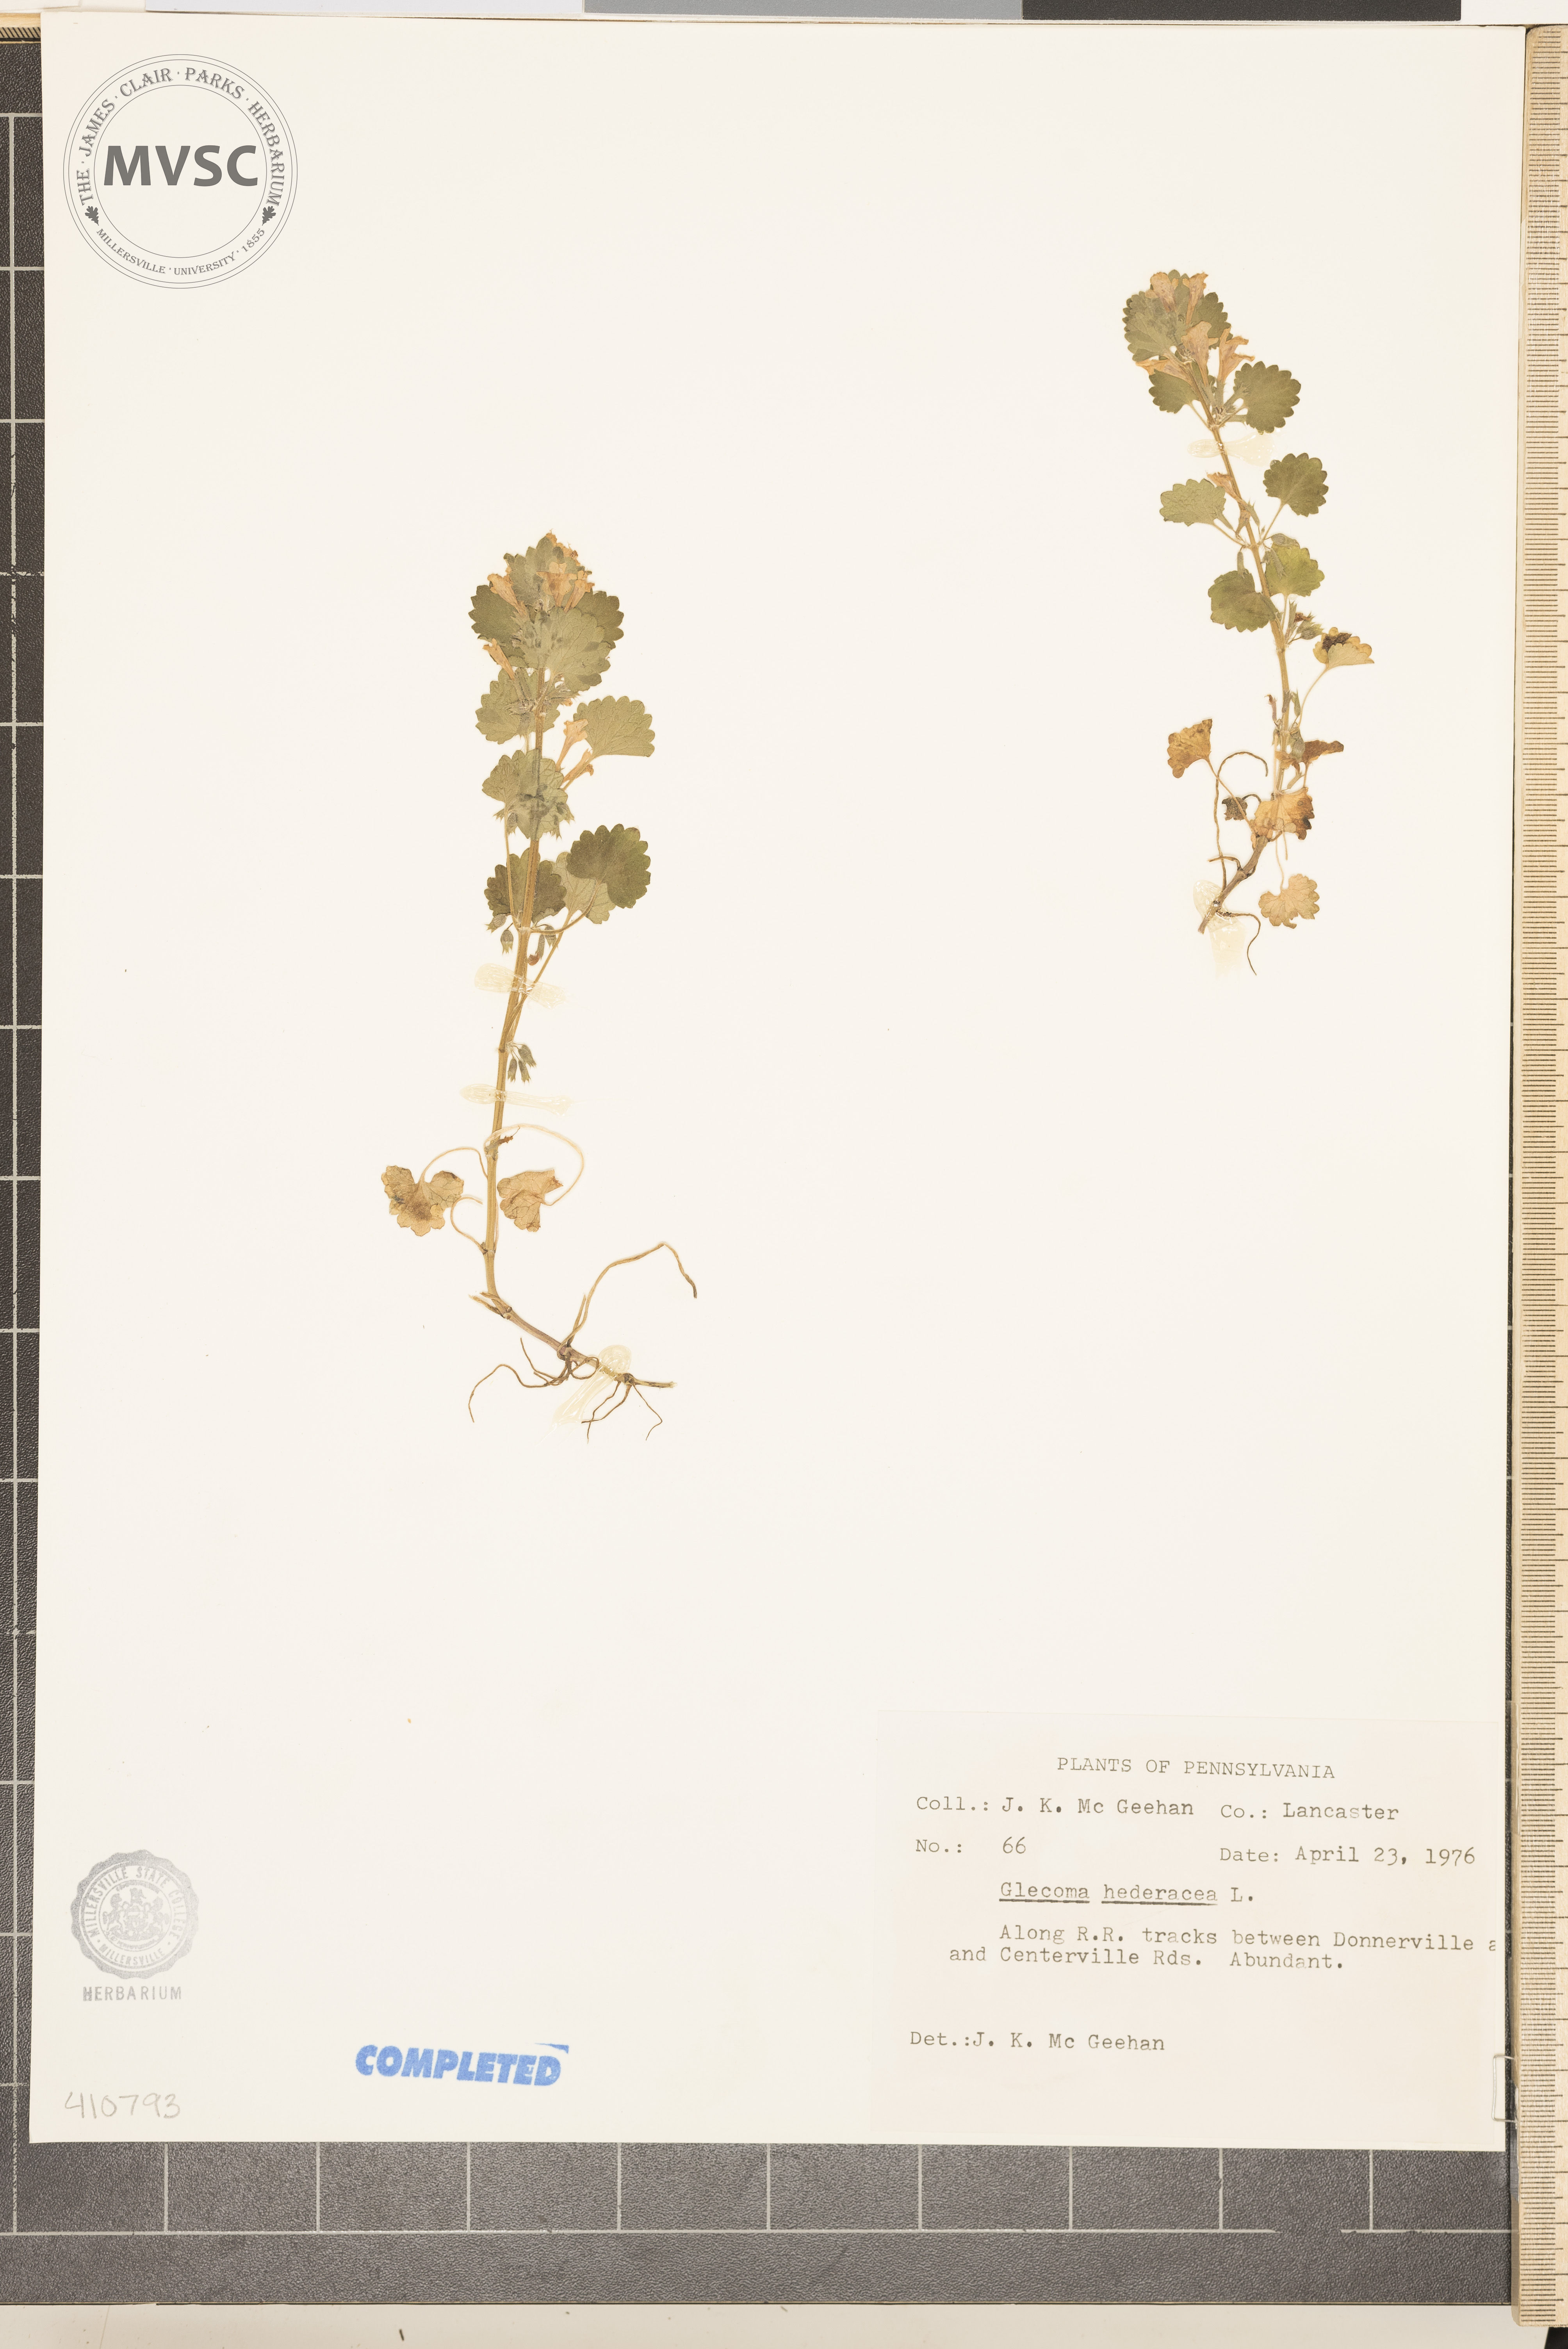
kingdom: Plantae
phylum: Tracheophyta
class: Magnoliopsida
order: Lamiales
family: Lamiaceae
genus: Glechoma
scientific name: Glechoma hederacea
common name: ground ivy
